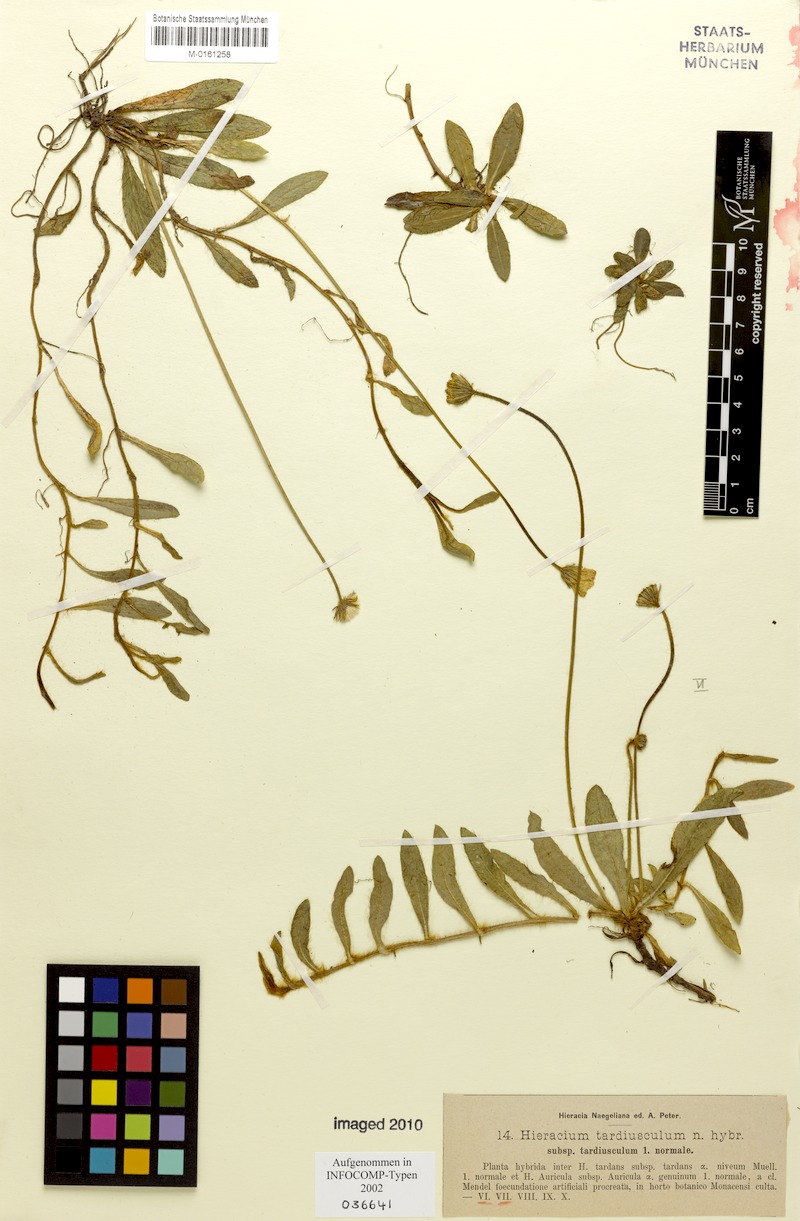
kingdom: Plantae
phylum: Tracheophyta
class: Magnoliopsida
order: Asterales
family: Asteraceae
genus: Pilosella
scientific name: Pilosella tardiuscula
